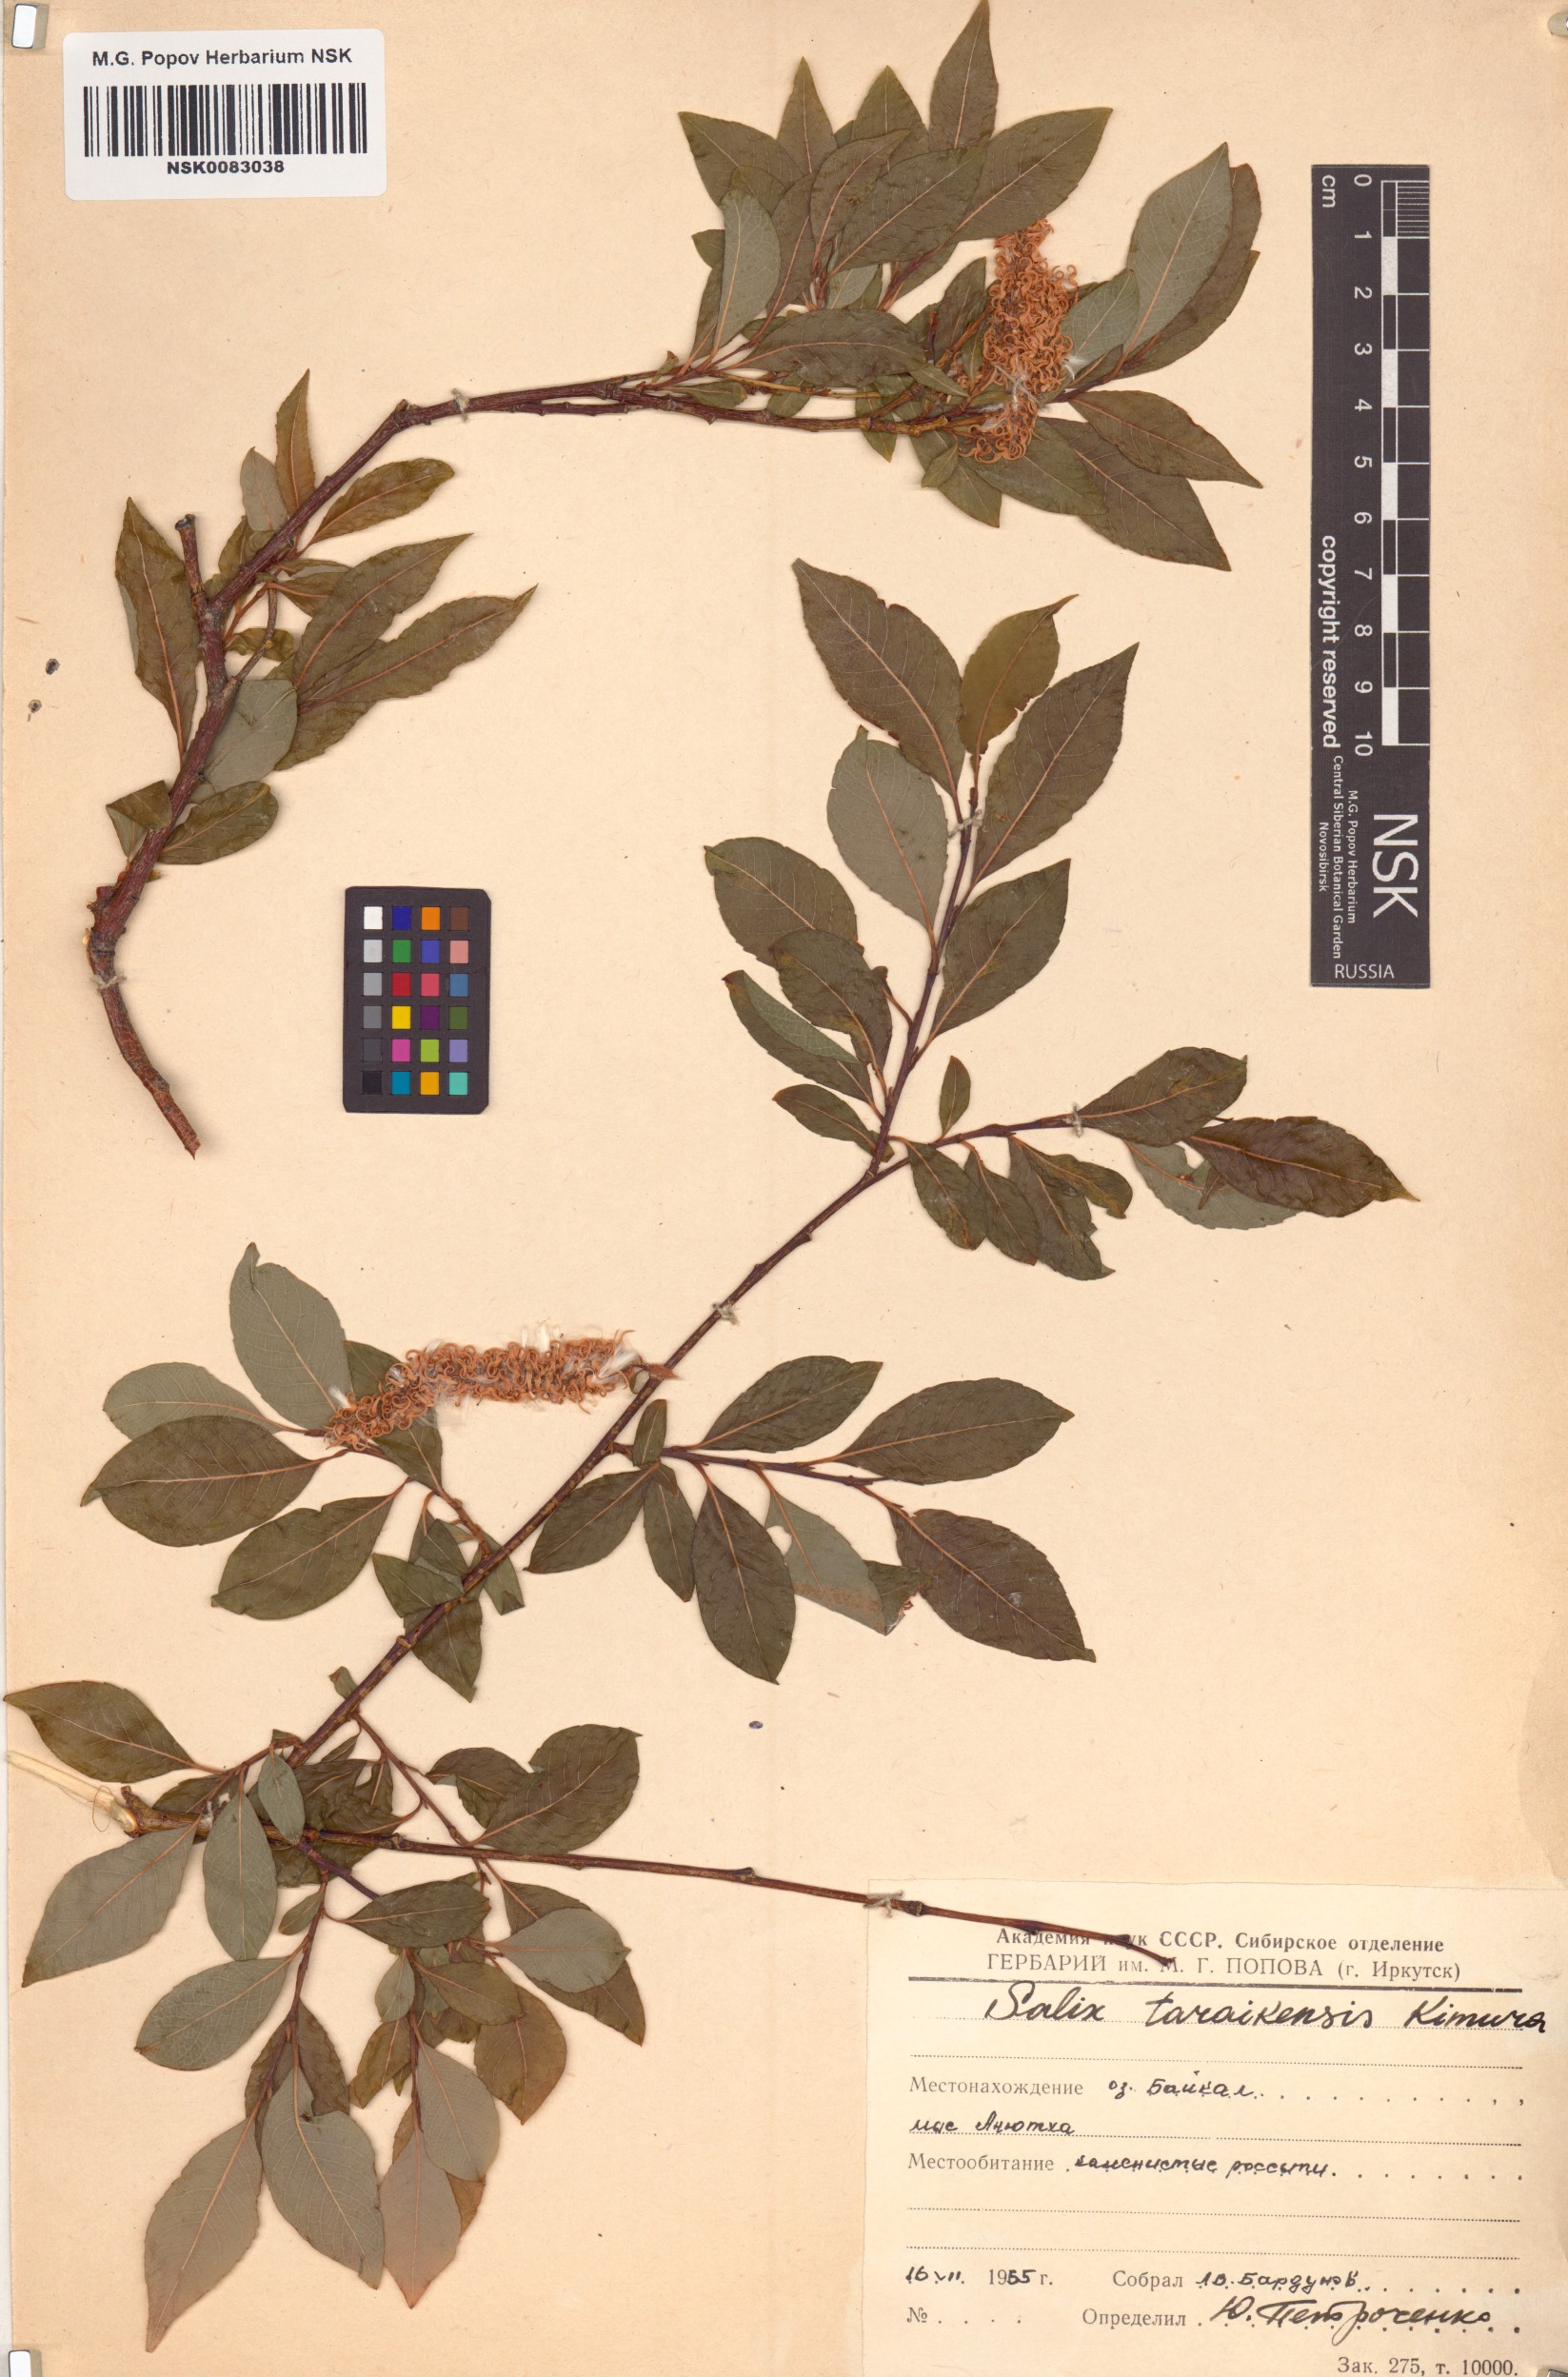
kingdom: Plantae
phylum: Tracheophyta
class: Magnoliopsida
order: Malpighiales
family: Salicaceae
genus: Salix
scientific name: Salix taraikensis
